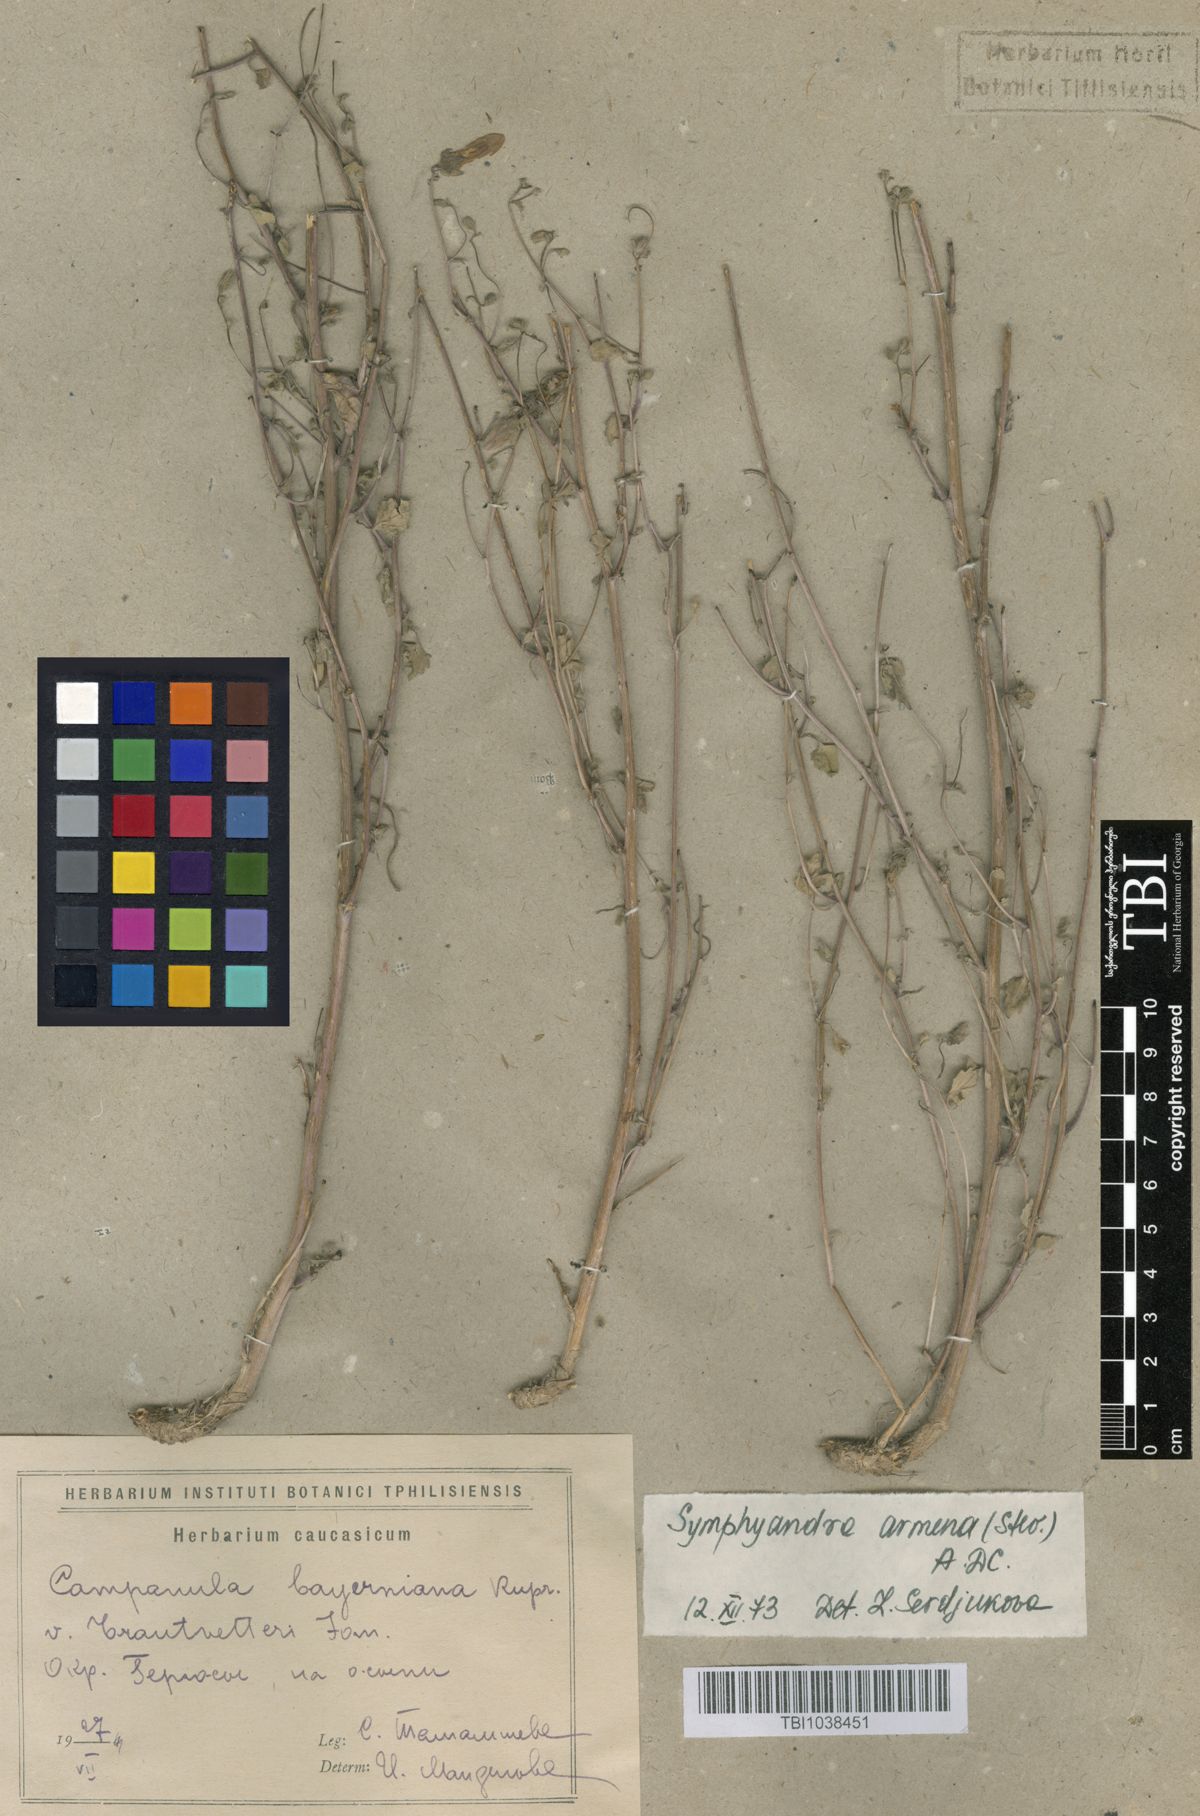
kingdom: Plantae
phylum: Tracheophyta
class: Magnoliopsida
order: Asterales
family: Campanulaceae
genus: Campanula
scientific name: Campanula armena
